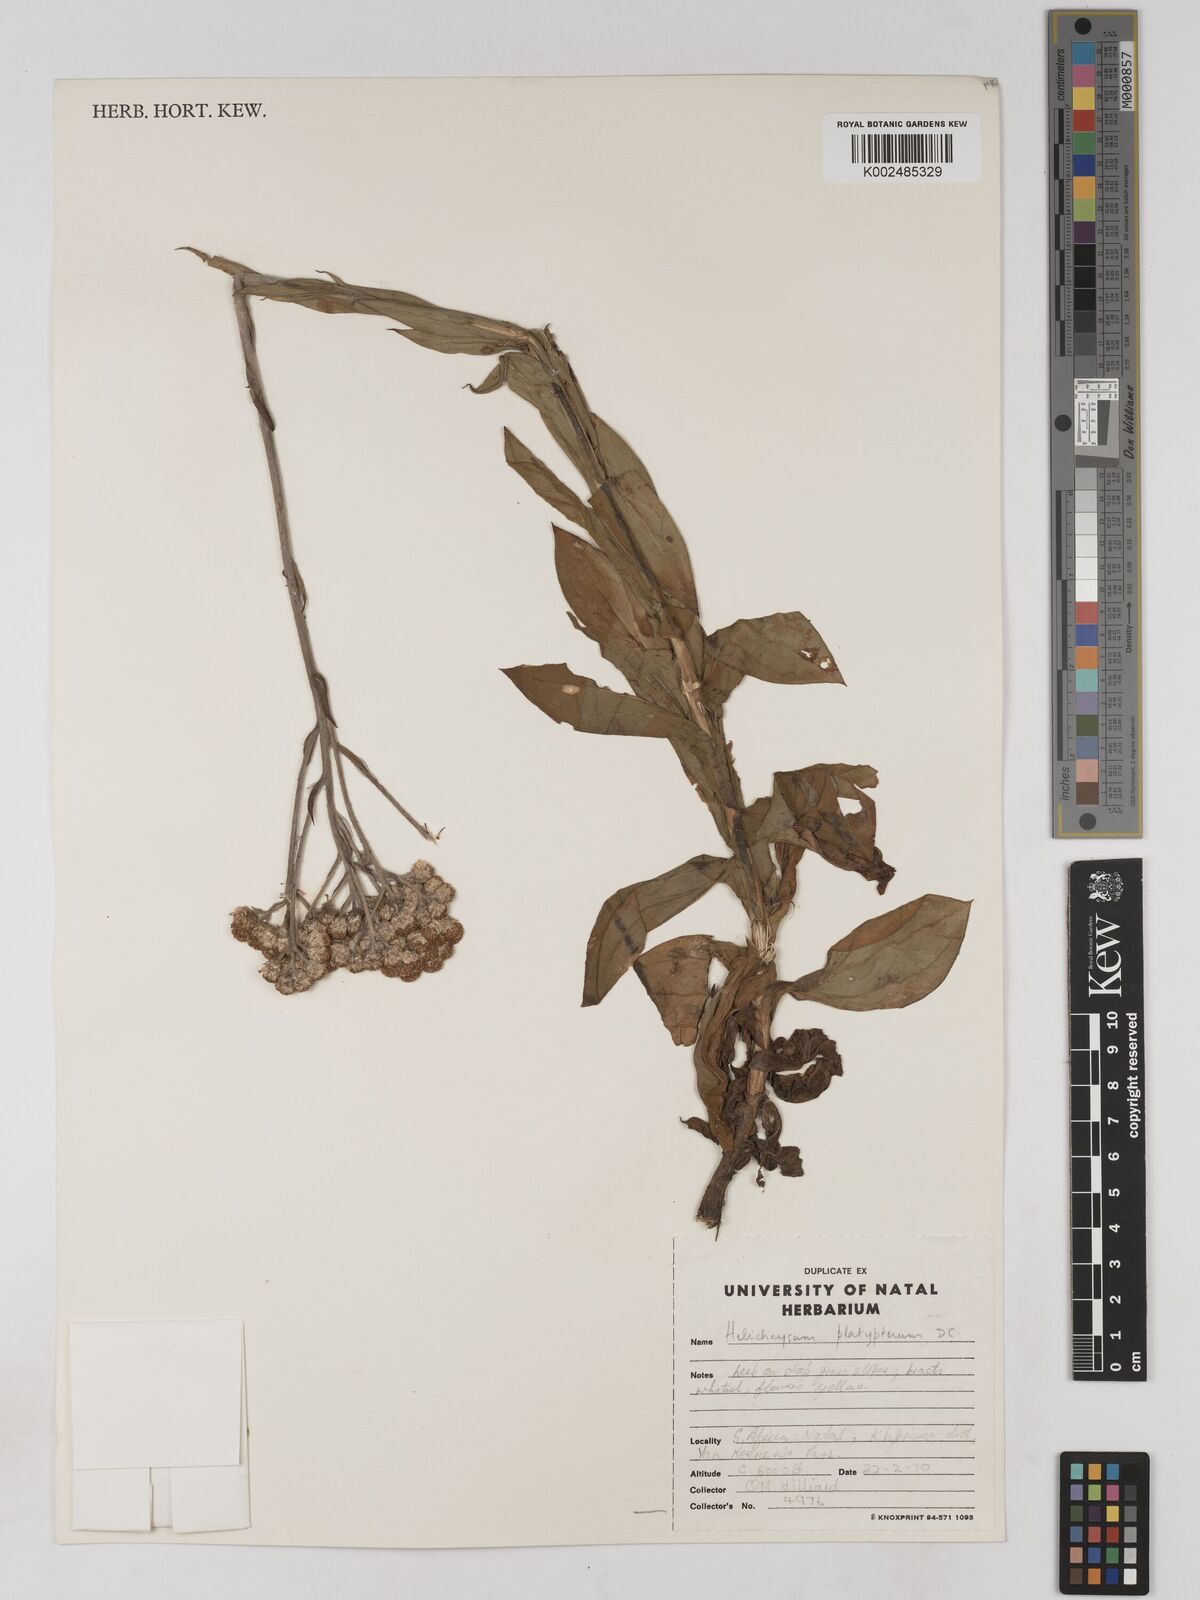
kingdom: Plantae
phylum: Tracheophyta
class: Magnoliopsida
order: Asterales
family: Asteraceae
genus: Helichrysum
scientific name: Helichrysum platypterum
